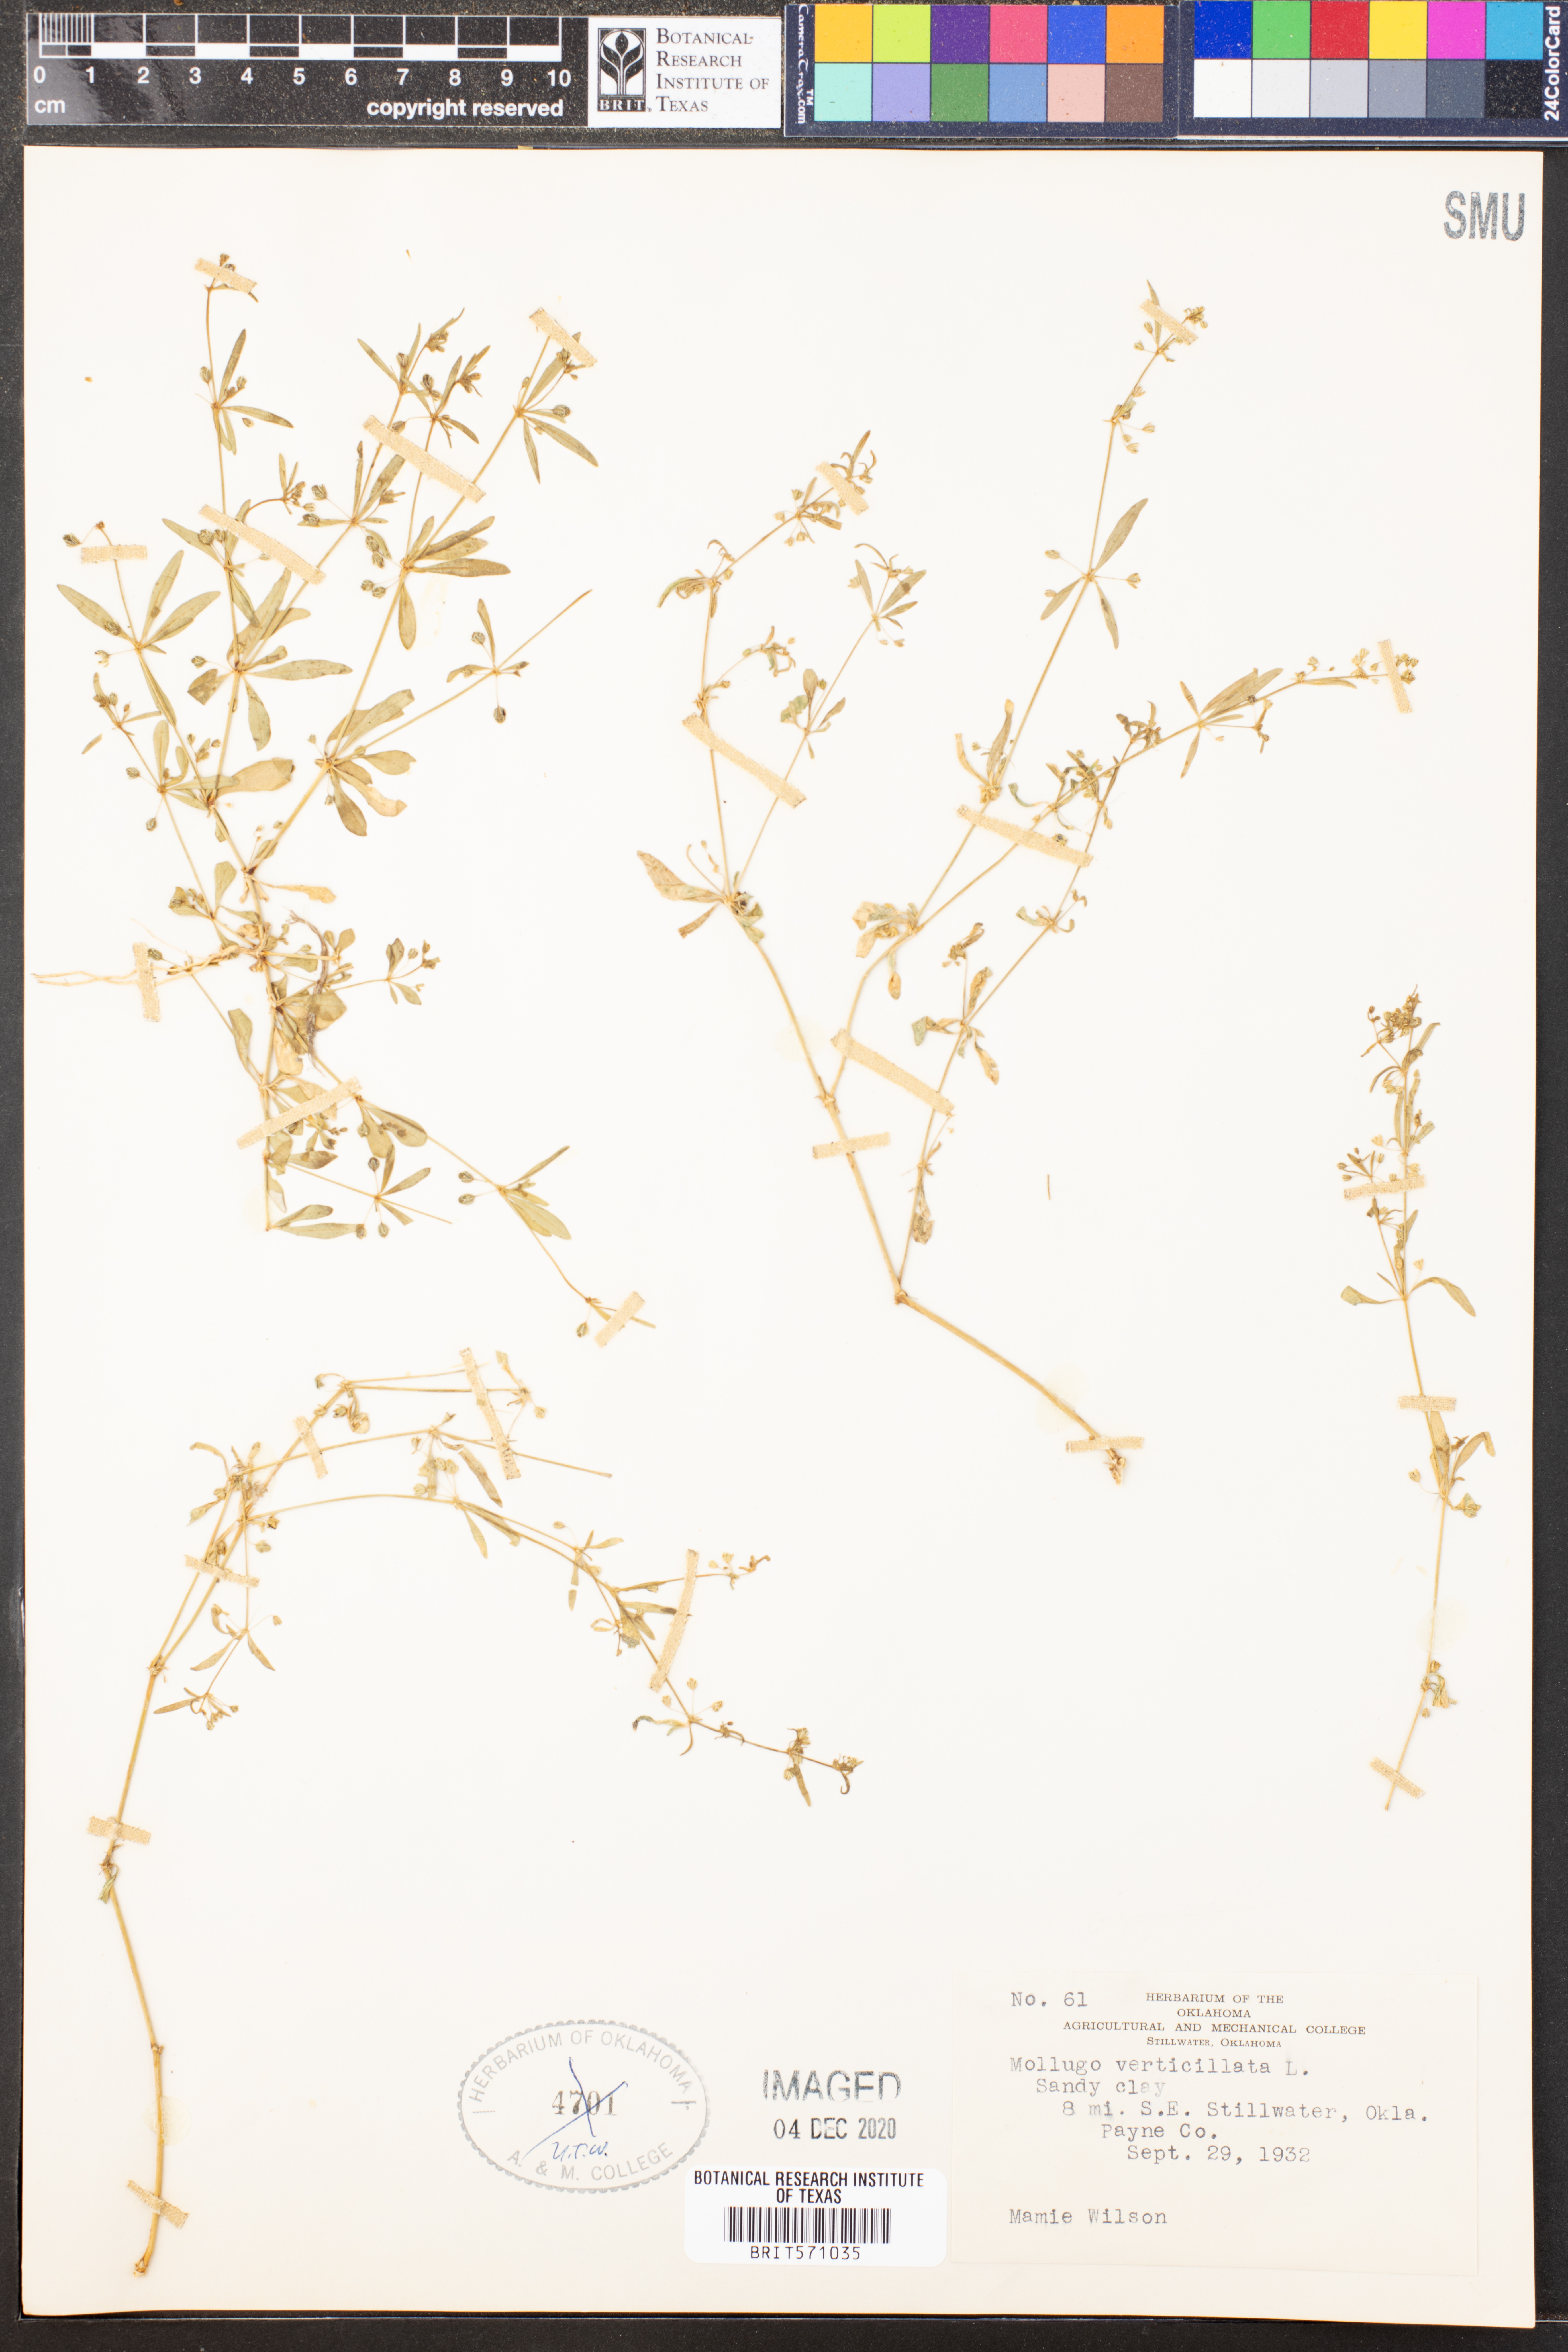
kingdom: Plantae
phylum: Tracheophyta
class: Magnoliopsida
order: Caryophyllales
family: Molluginaceae
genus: Mollugo
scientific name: Mollugo verticillata
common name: Green carpetweed
